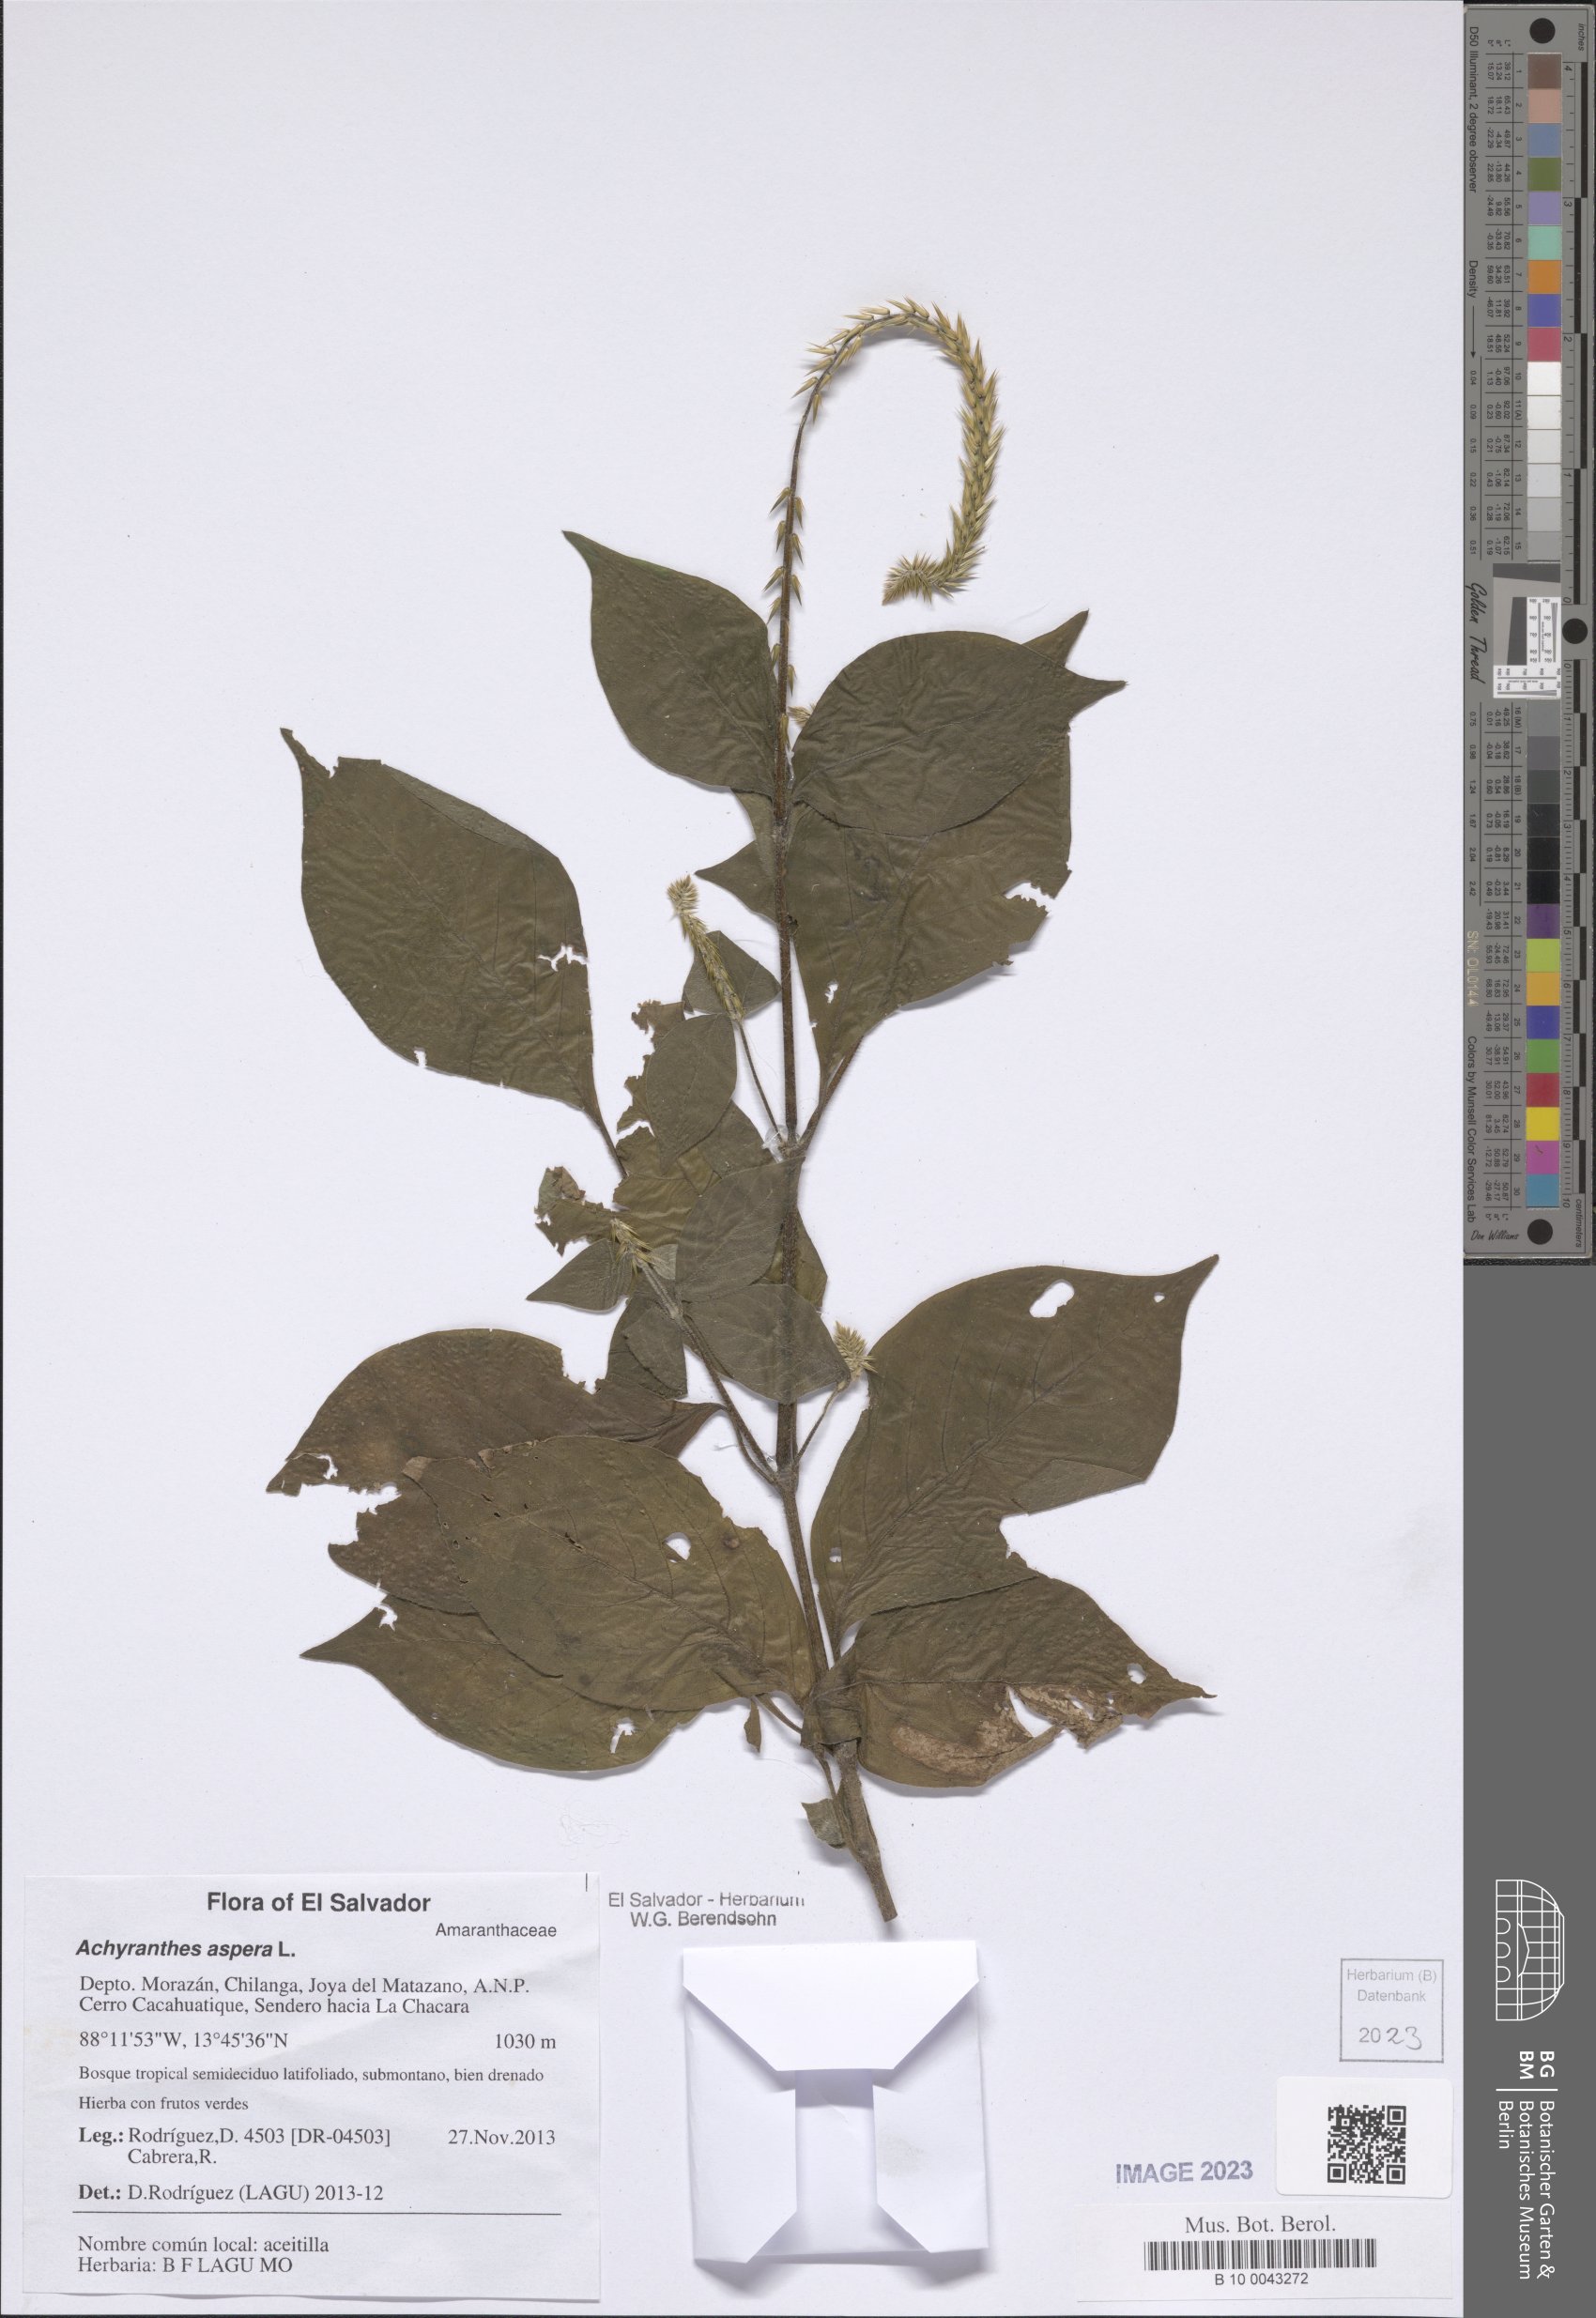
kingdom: Plantae
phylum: Tracheophyta
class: Magnoliopsida
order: Caryophyllales
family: Amaranthaceae
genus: Achyranthes
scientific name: Achyranthes aspera
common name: Devil's horsewhip
